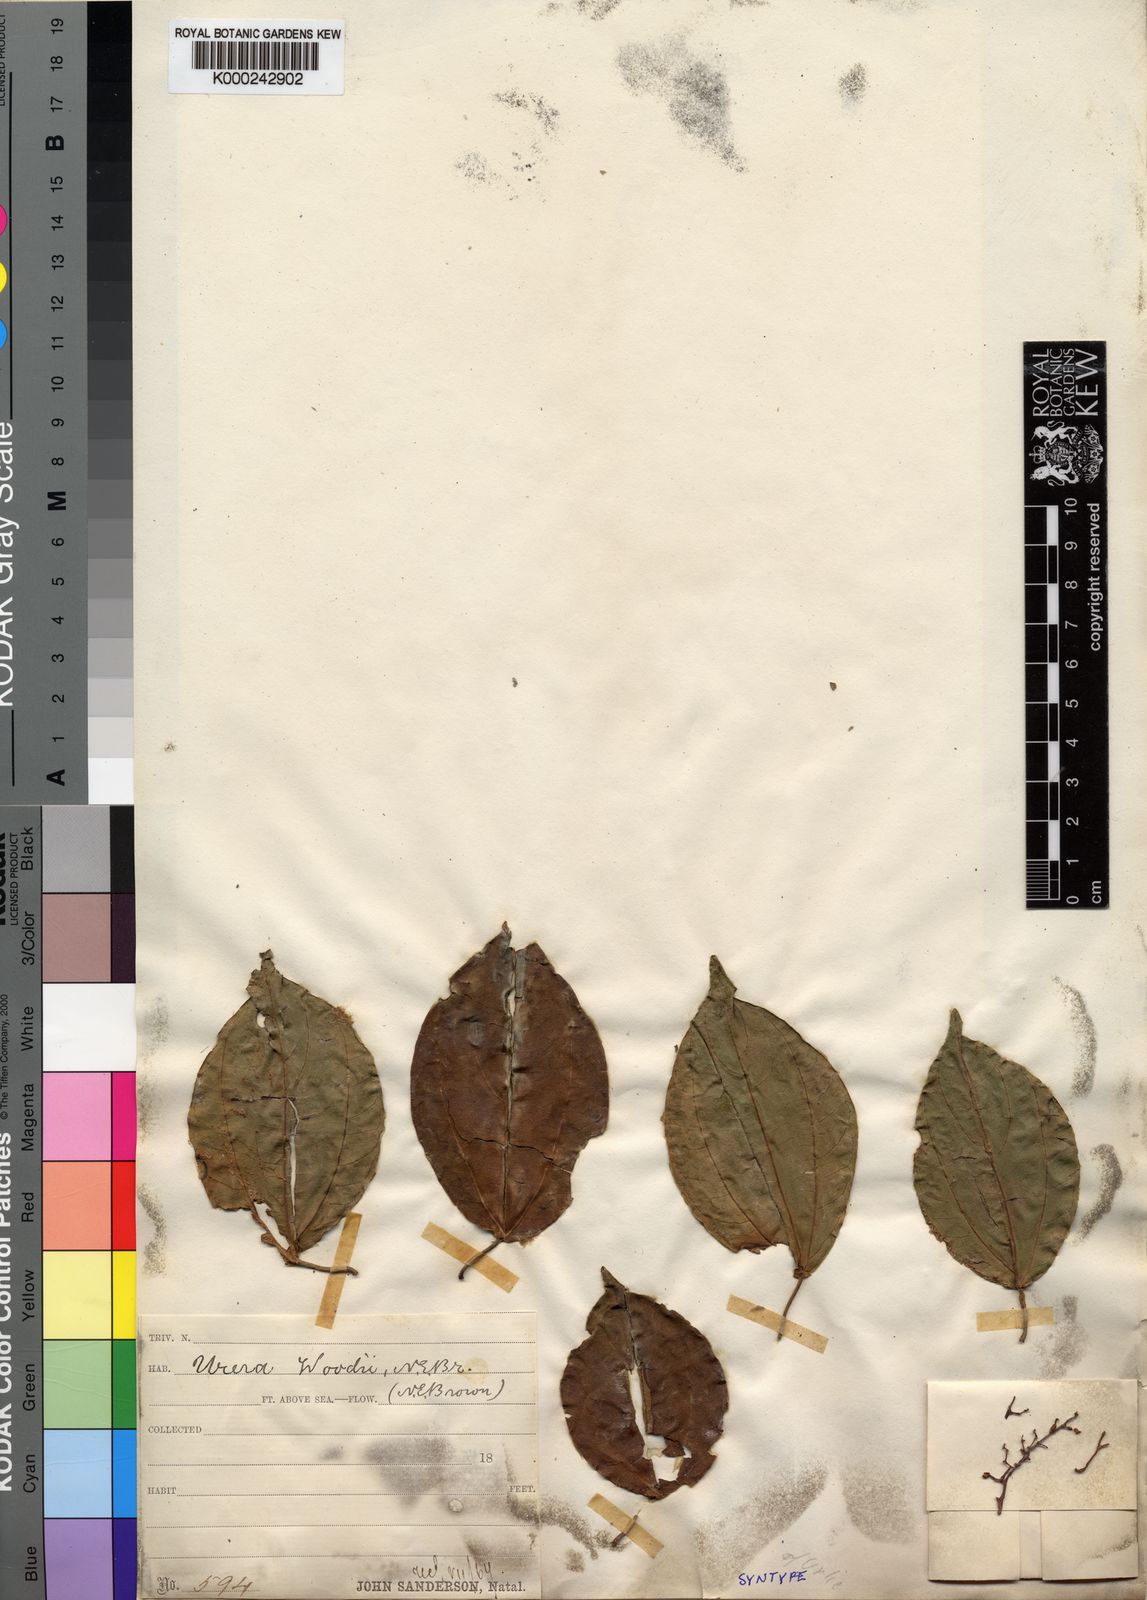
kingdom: Plantae
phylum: Tracheophyta
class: Magnoliopsida
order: Rosales
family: Urticaceae
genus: Scepocarpus
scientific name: Scepocarpus
